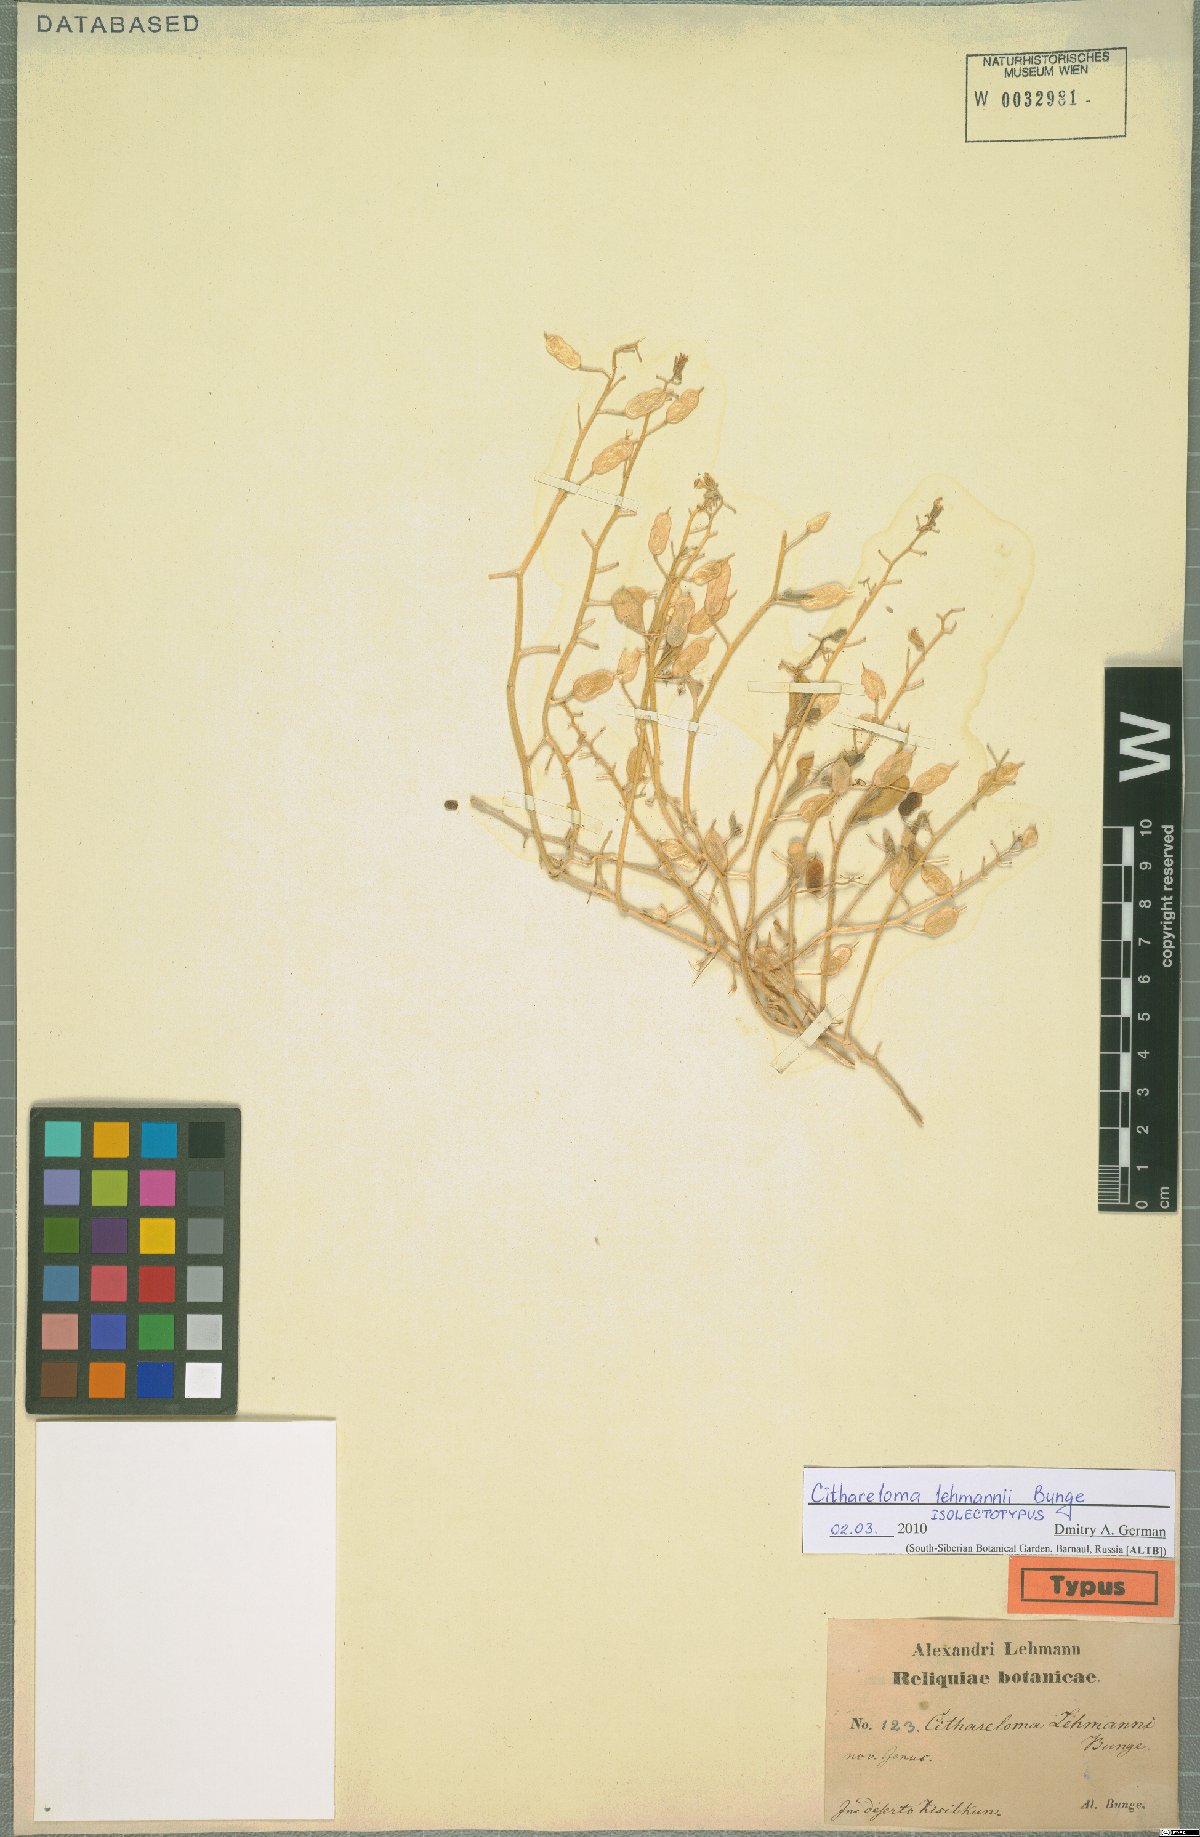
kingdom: Plantae
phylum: Tracheophyta
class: Magnoliopsida
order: Brassicales
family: Brassicaceae
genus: Cithareloma
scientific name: Cithareloma lehmannii
